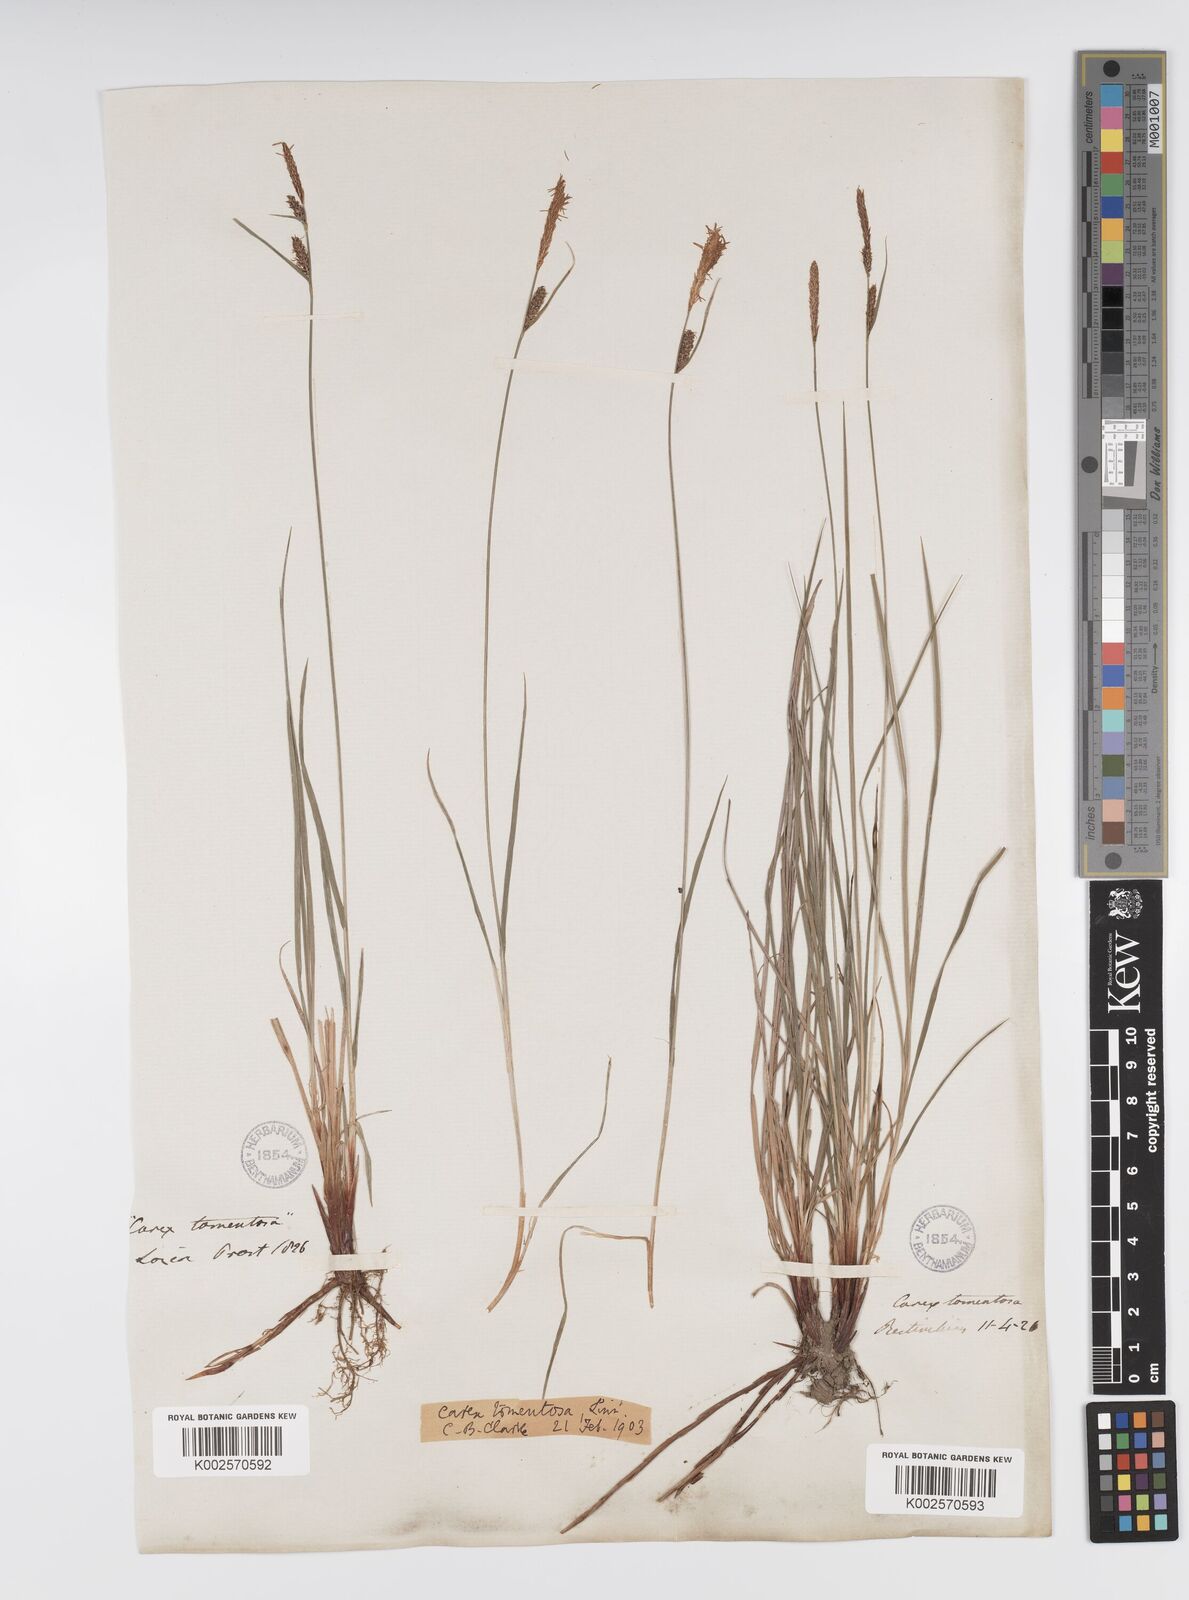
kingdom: Plantae
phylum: Tracheophyta
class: Liliopsida
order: Poales
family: Cyperaceae
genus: Carex
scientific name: Carex montana
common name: Soft-leaved sedge
